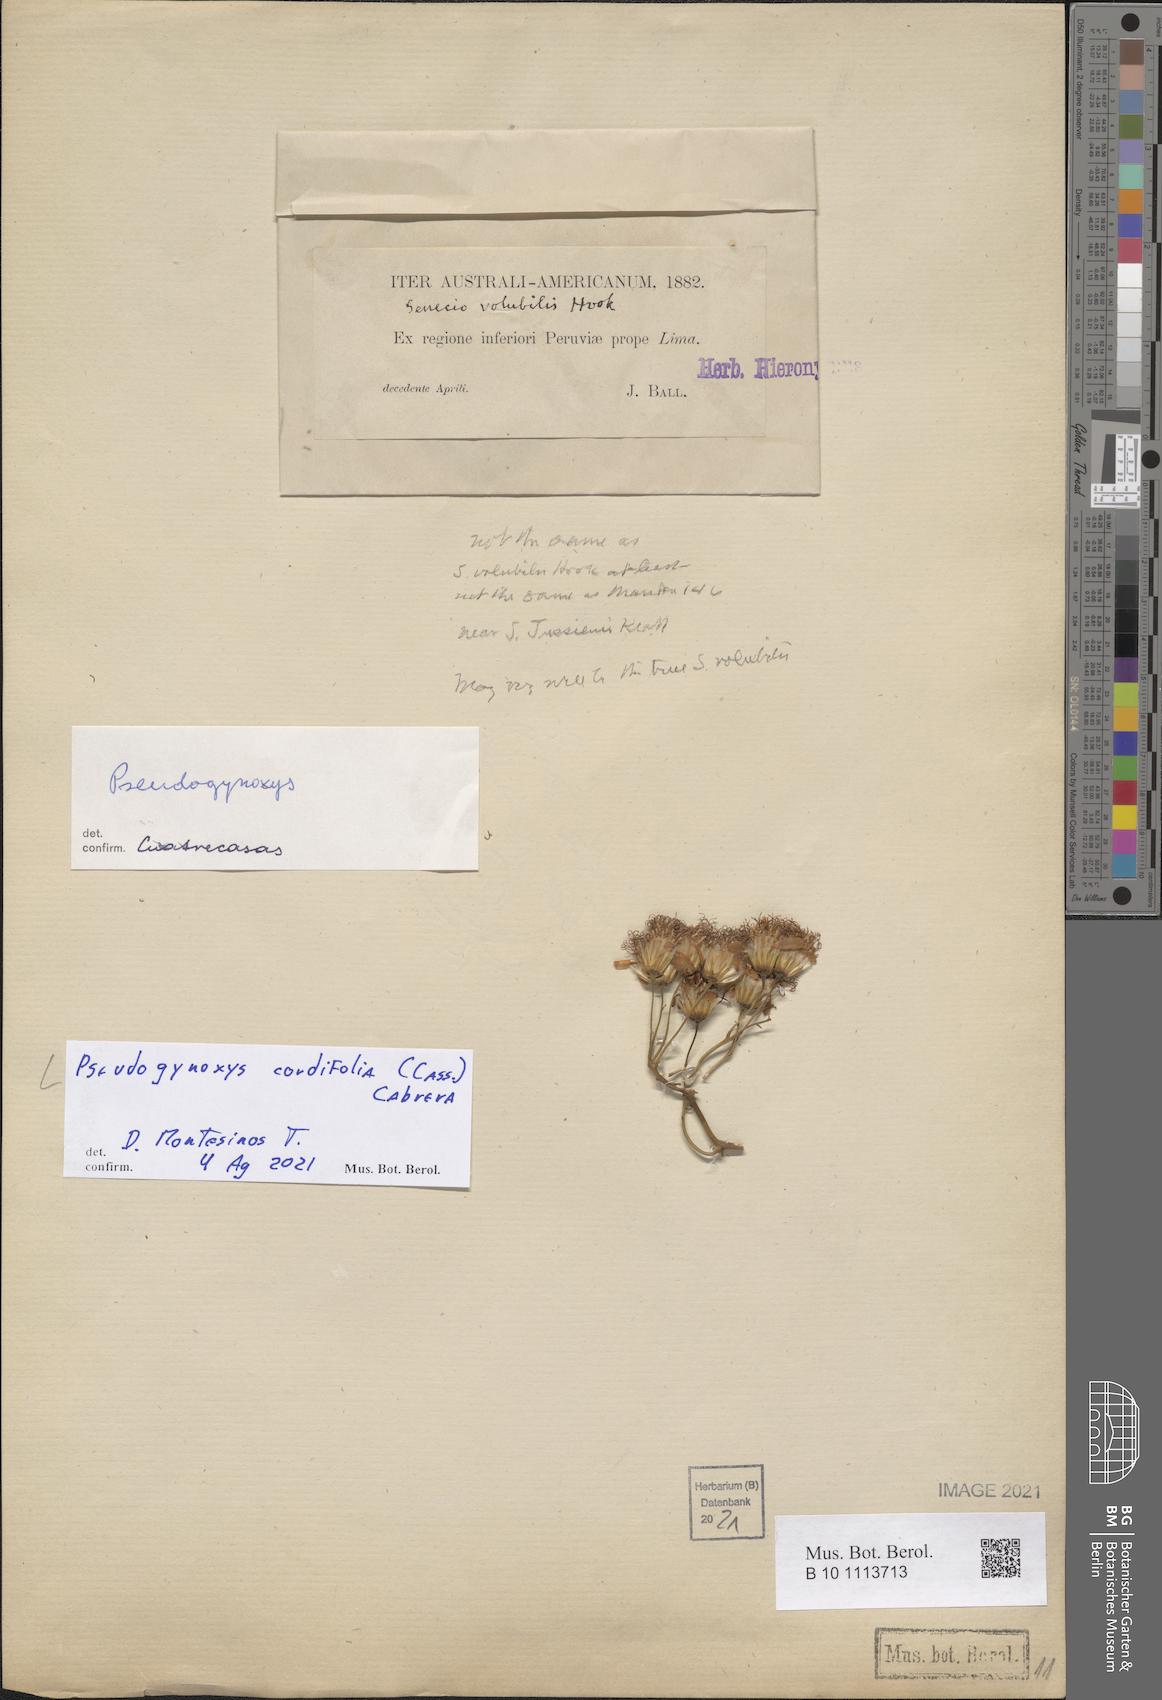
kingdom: Plantae
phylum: Tracheophyta
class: Magnoliopsida
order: Asterales
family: Asteraceae
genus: Pseudogynoxys
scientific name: Pseudogynoxys chenopodioides
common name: Mexican flamevine
